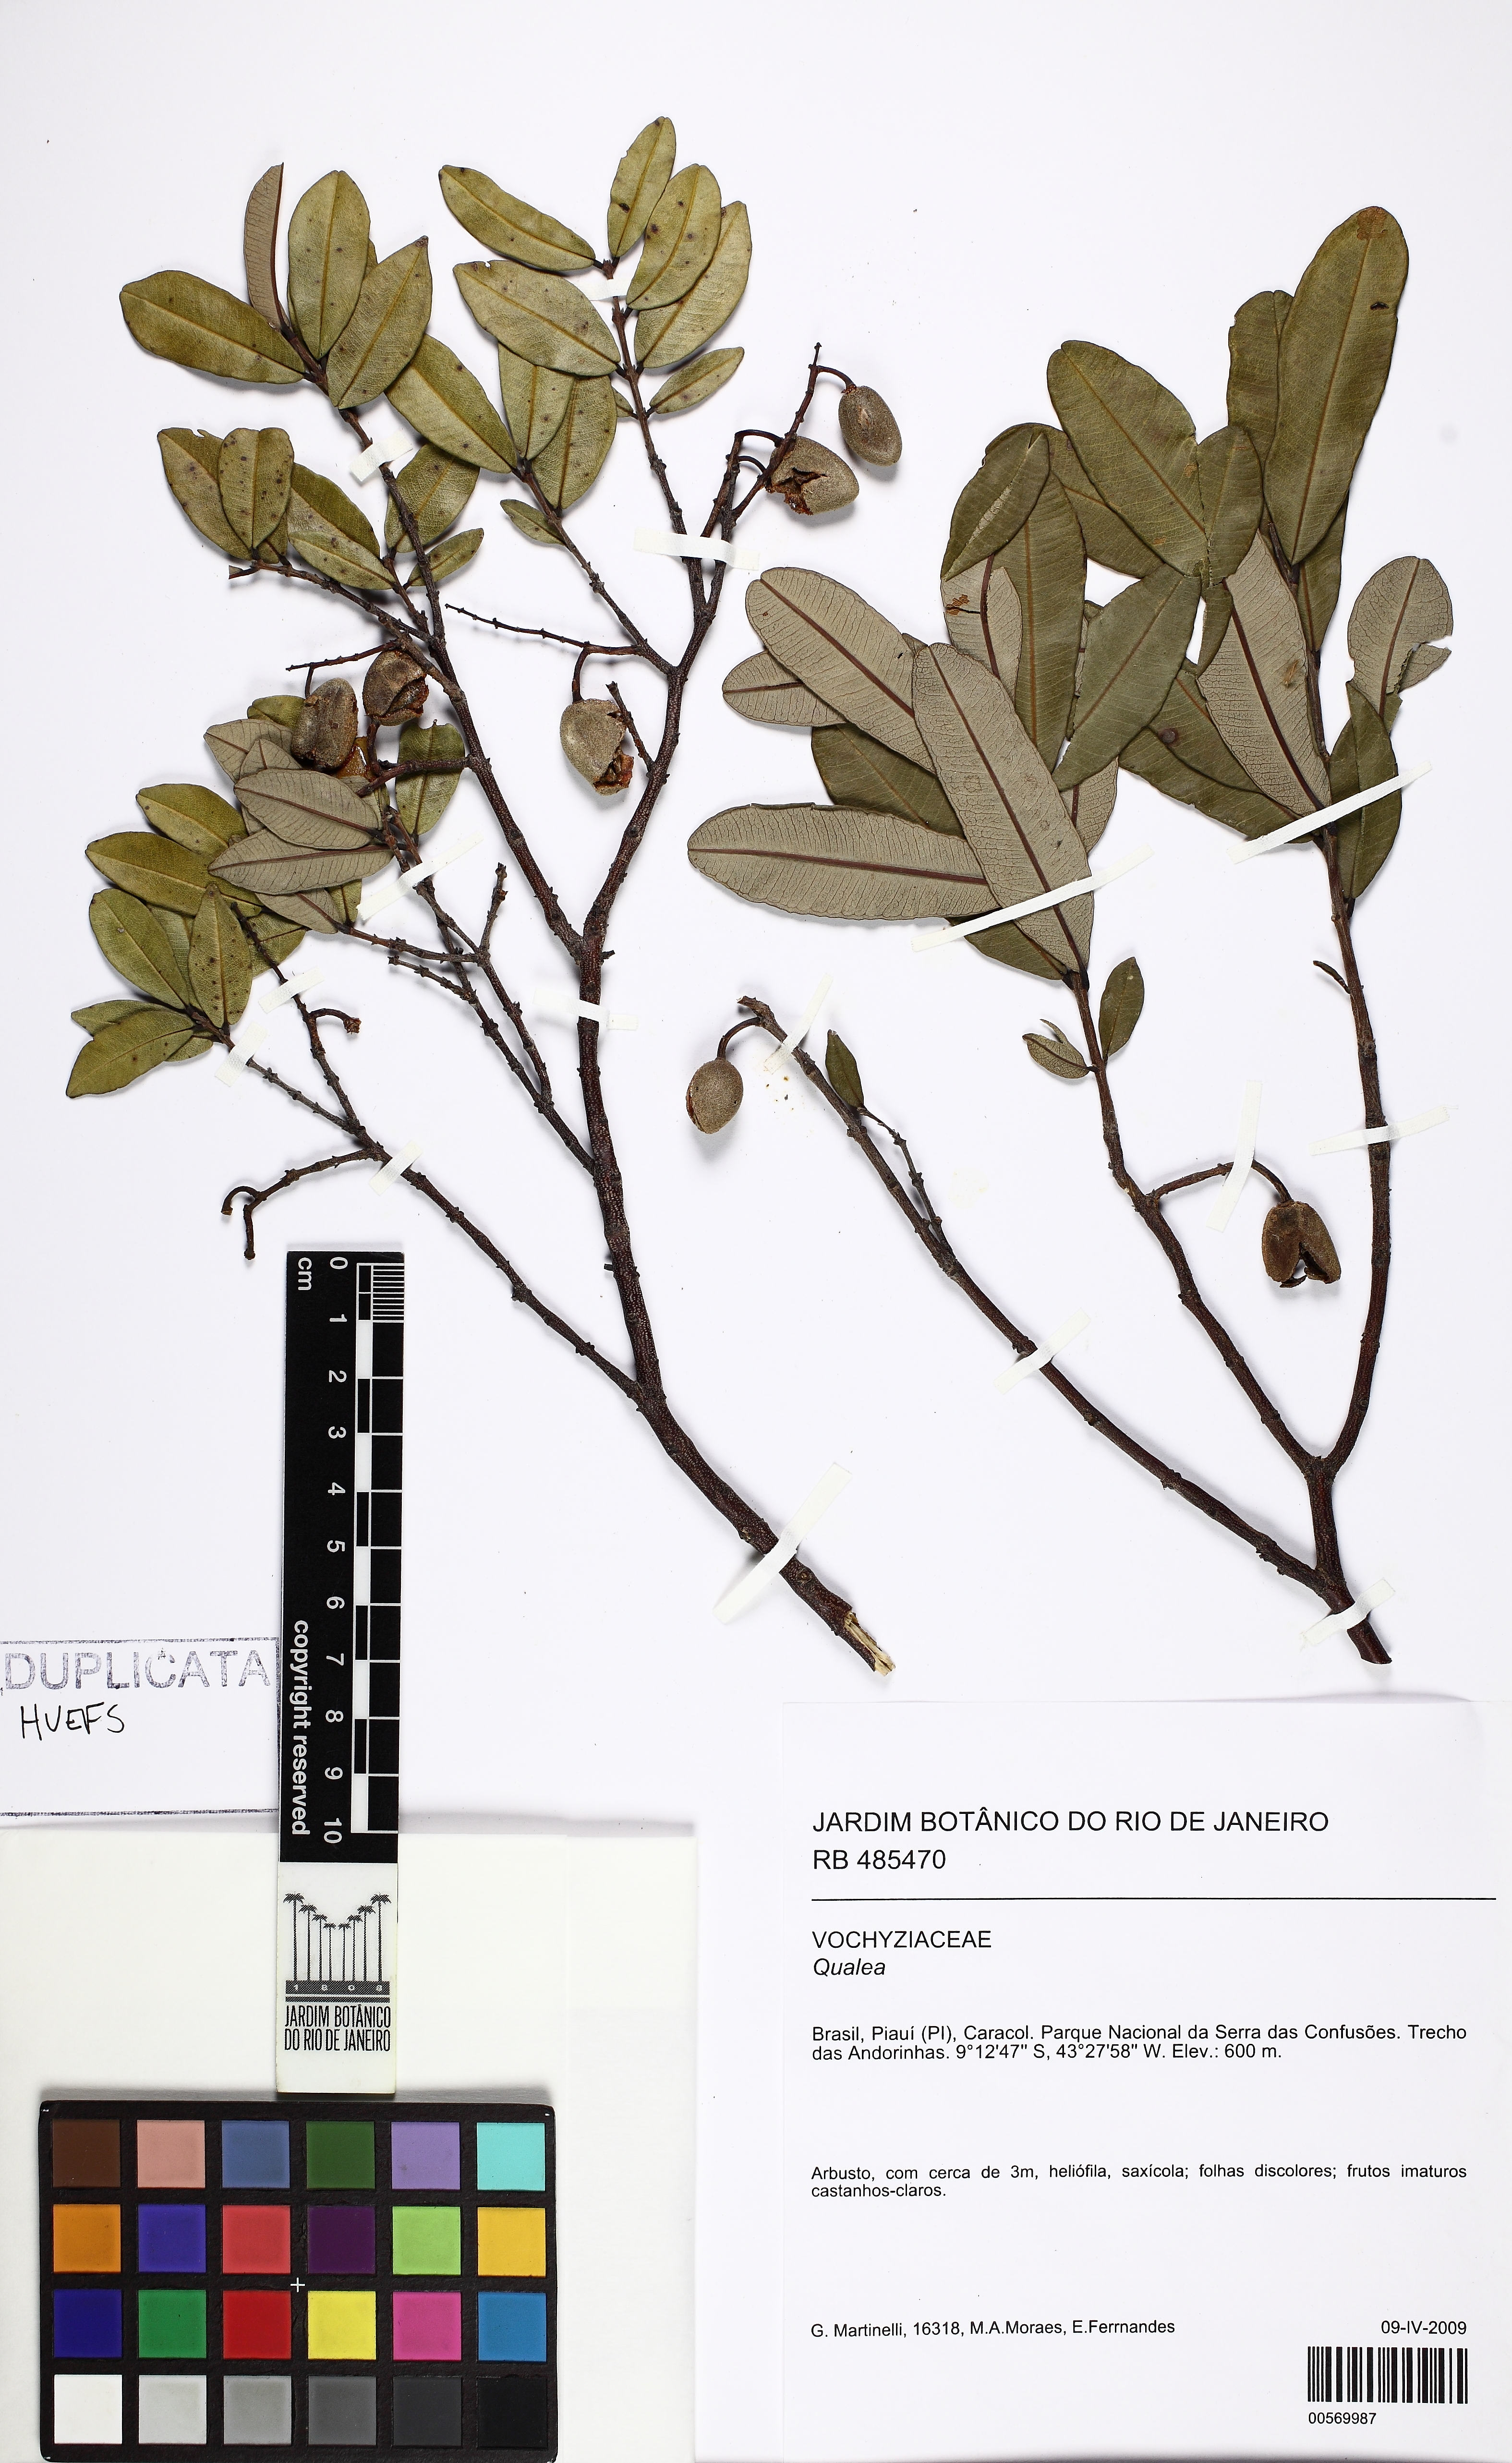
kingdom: Plantae
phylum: Tracheophyta
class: Magnoliopsida
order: Myrtales
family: Vochysiaceae
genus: Qualea
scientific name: Qualea
